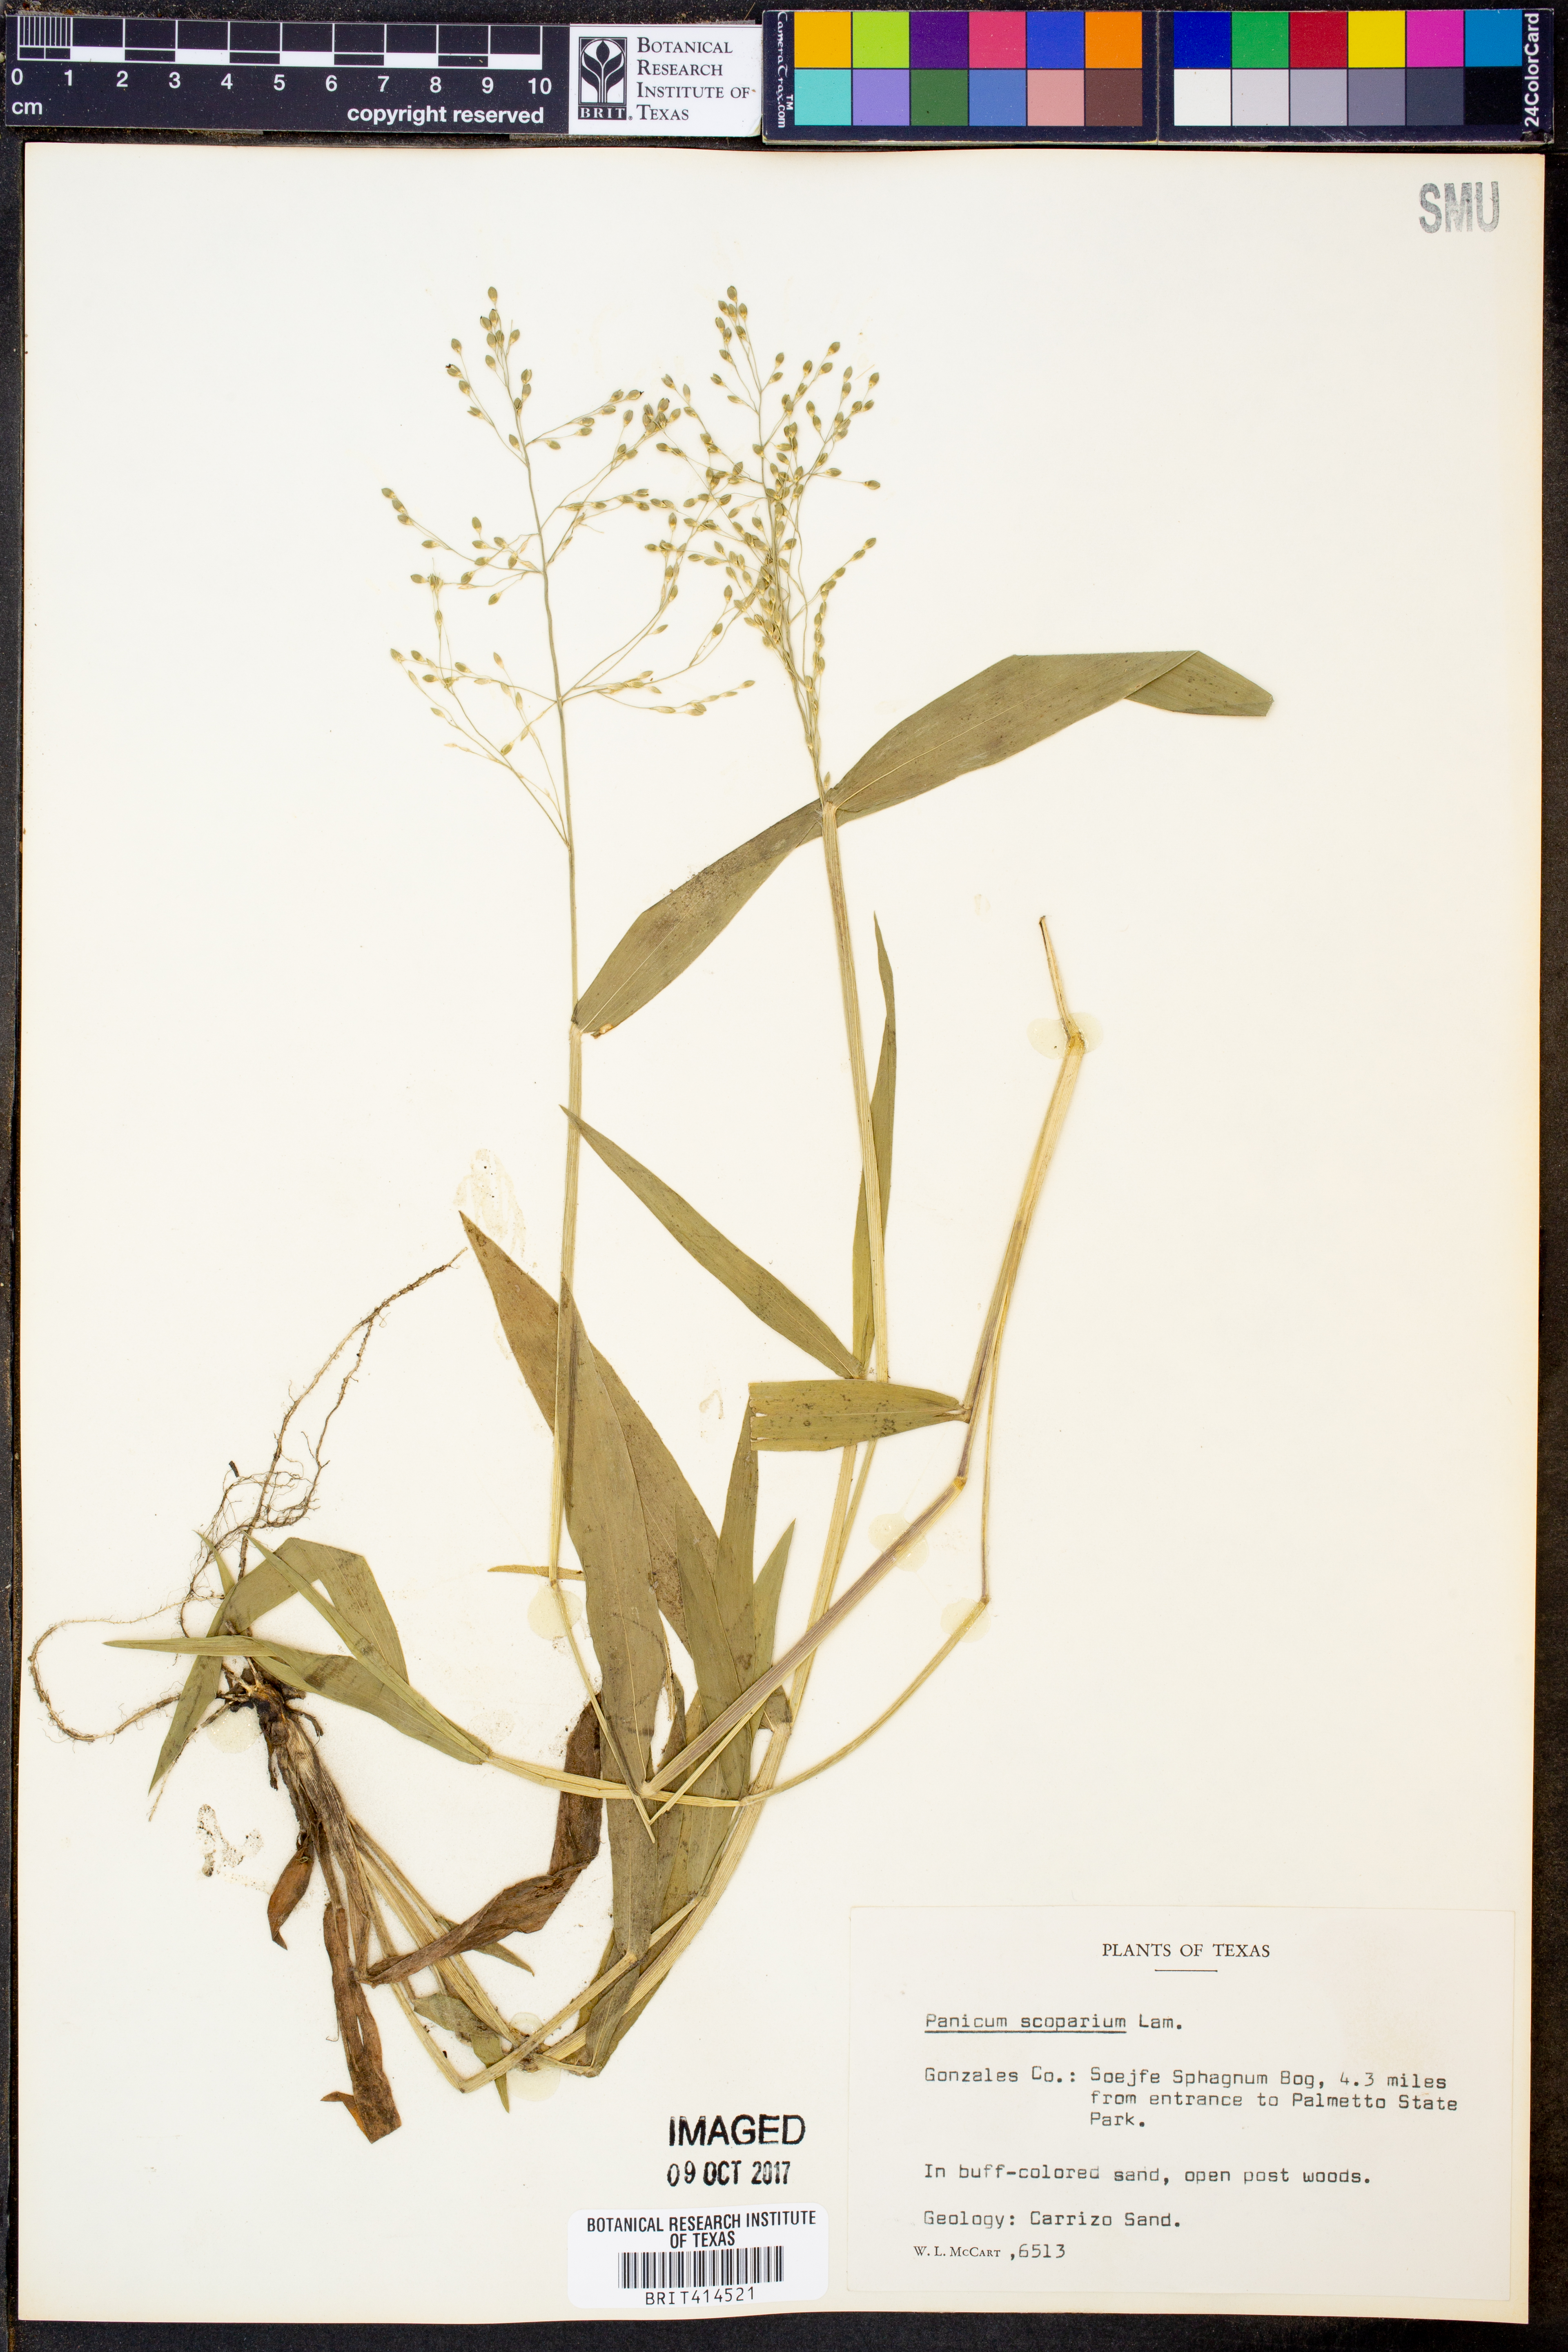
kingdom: Plantae
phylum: Tracheophyta
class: Liliopsida
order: Poales
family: Poaceae
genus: Dichanthelium
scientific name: Dichanthelium scribnerianum
